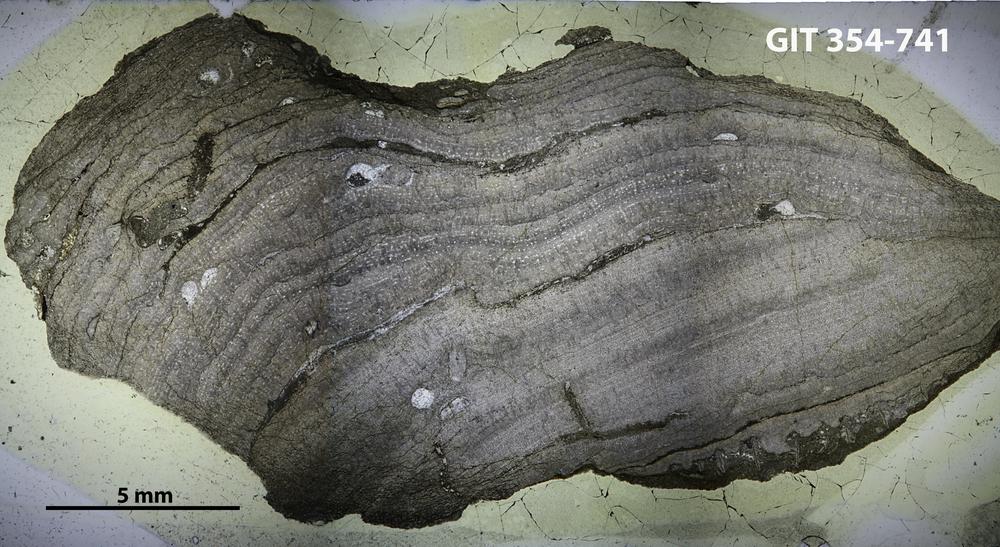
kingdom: Animalia
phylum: Porifera
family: Stromatoporidae
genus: Parallelostroma
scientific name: Parallelostroma
